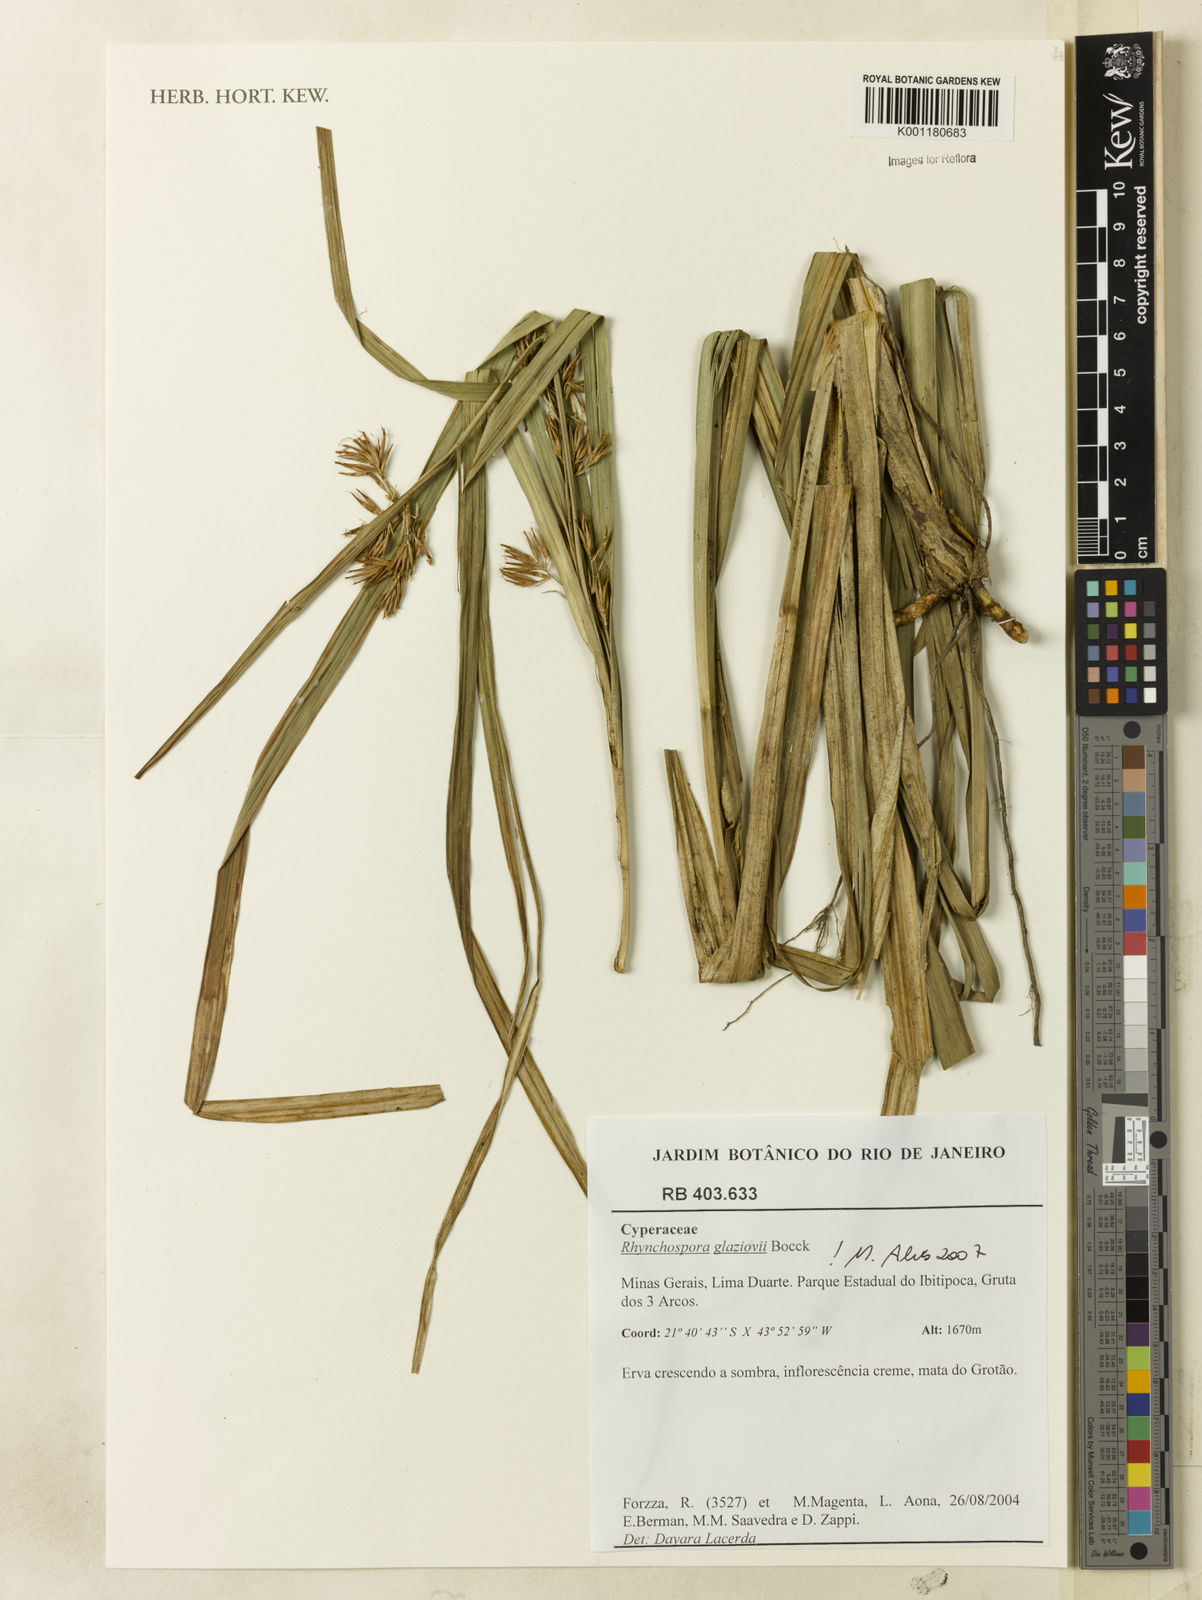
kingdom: Plantae
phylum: Tracheophyta
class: Liliopsida
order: Poales
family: Cyperaceae
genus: Rhynchospora
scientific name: Rhynchospora glaziovii
